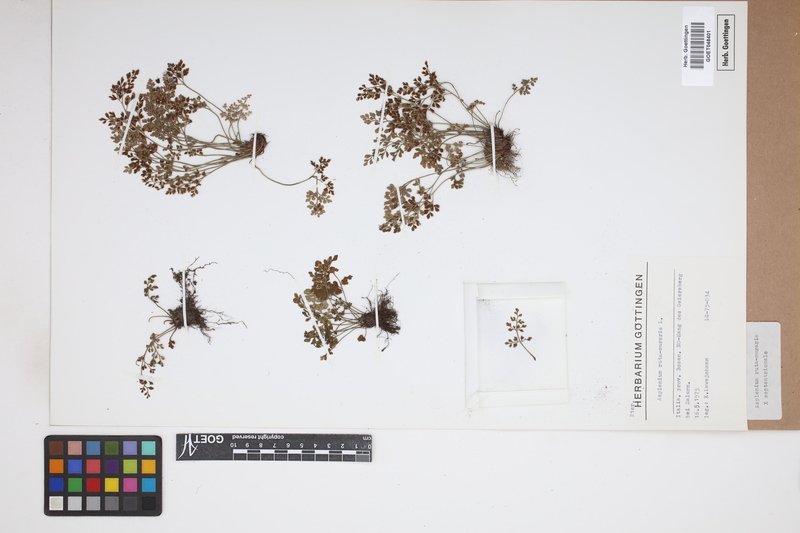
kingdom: Plantae
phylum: Tracheophyta
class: Polypodiopsida
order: Polypodiales
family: Aspleniaceae
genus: Asplenium
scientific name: Asplenium
